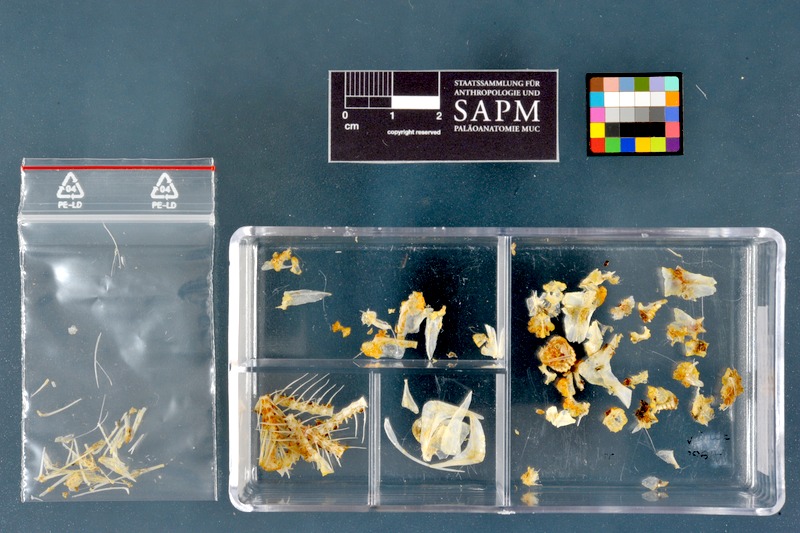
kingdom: Animalia
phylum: Chordata
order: Characiformes
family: Alestidae
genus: Brycinus
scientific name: Brycinus nurse
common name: Nurse tetra
